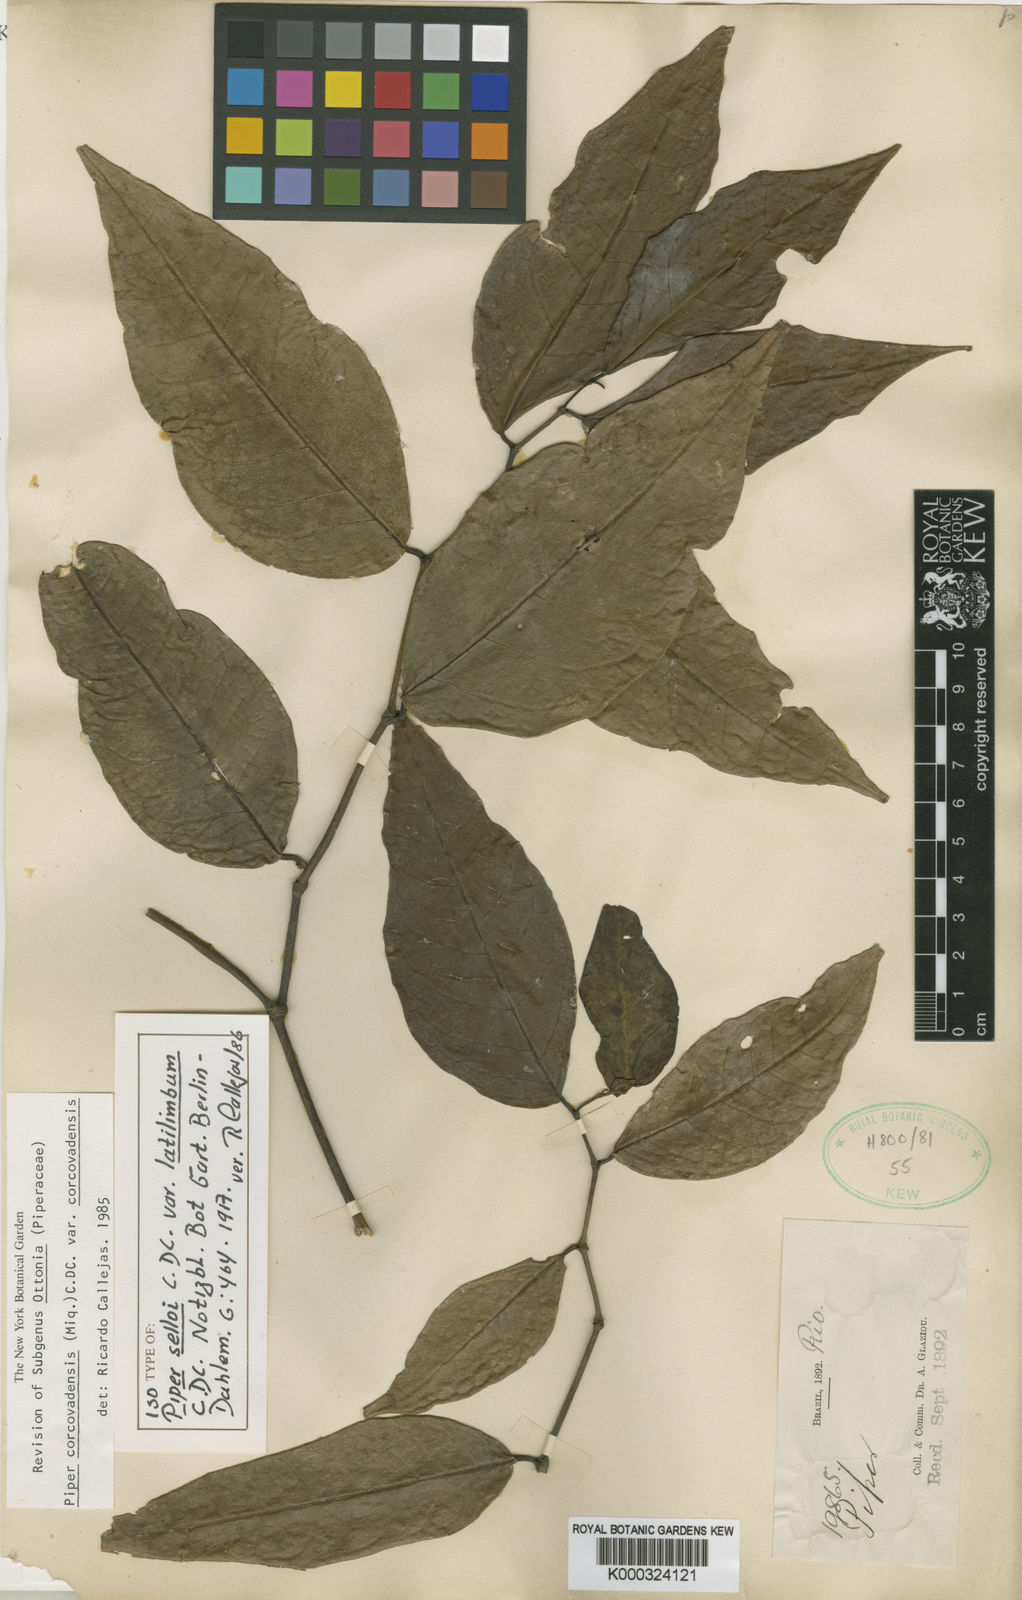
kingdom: Plantae
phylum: Tracheophyta
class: Magnoliopsida
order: Piperales
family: Piperaceae
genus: Piper
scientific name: Piper corcovadense
